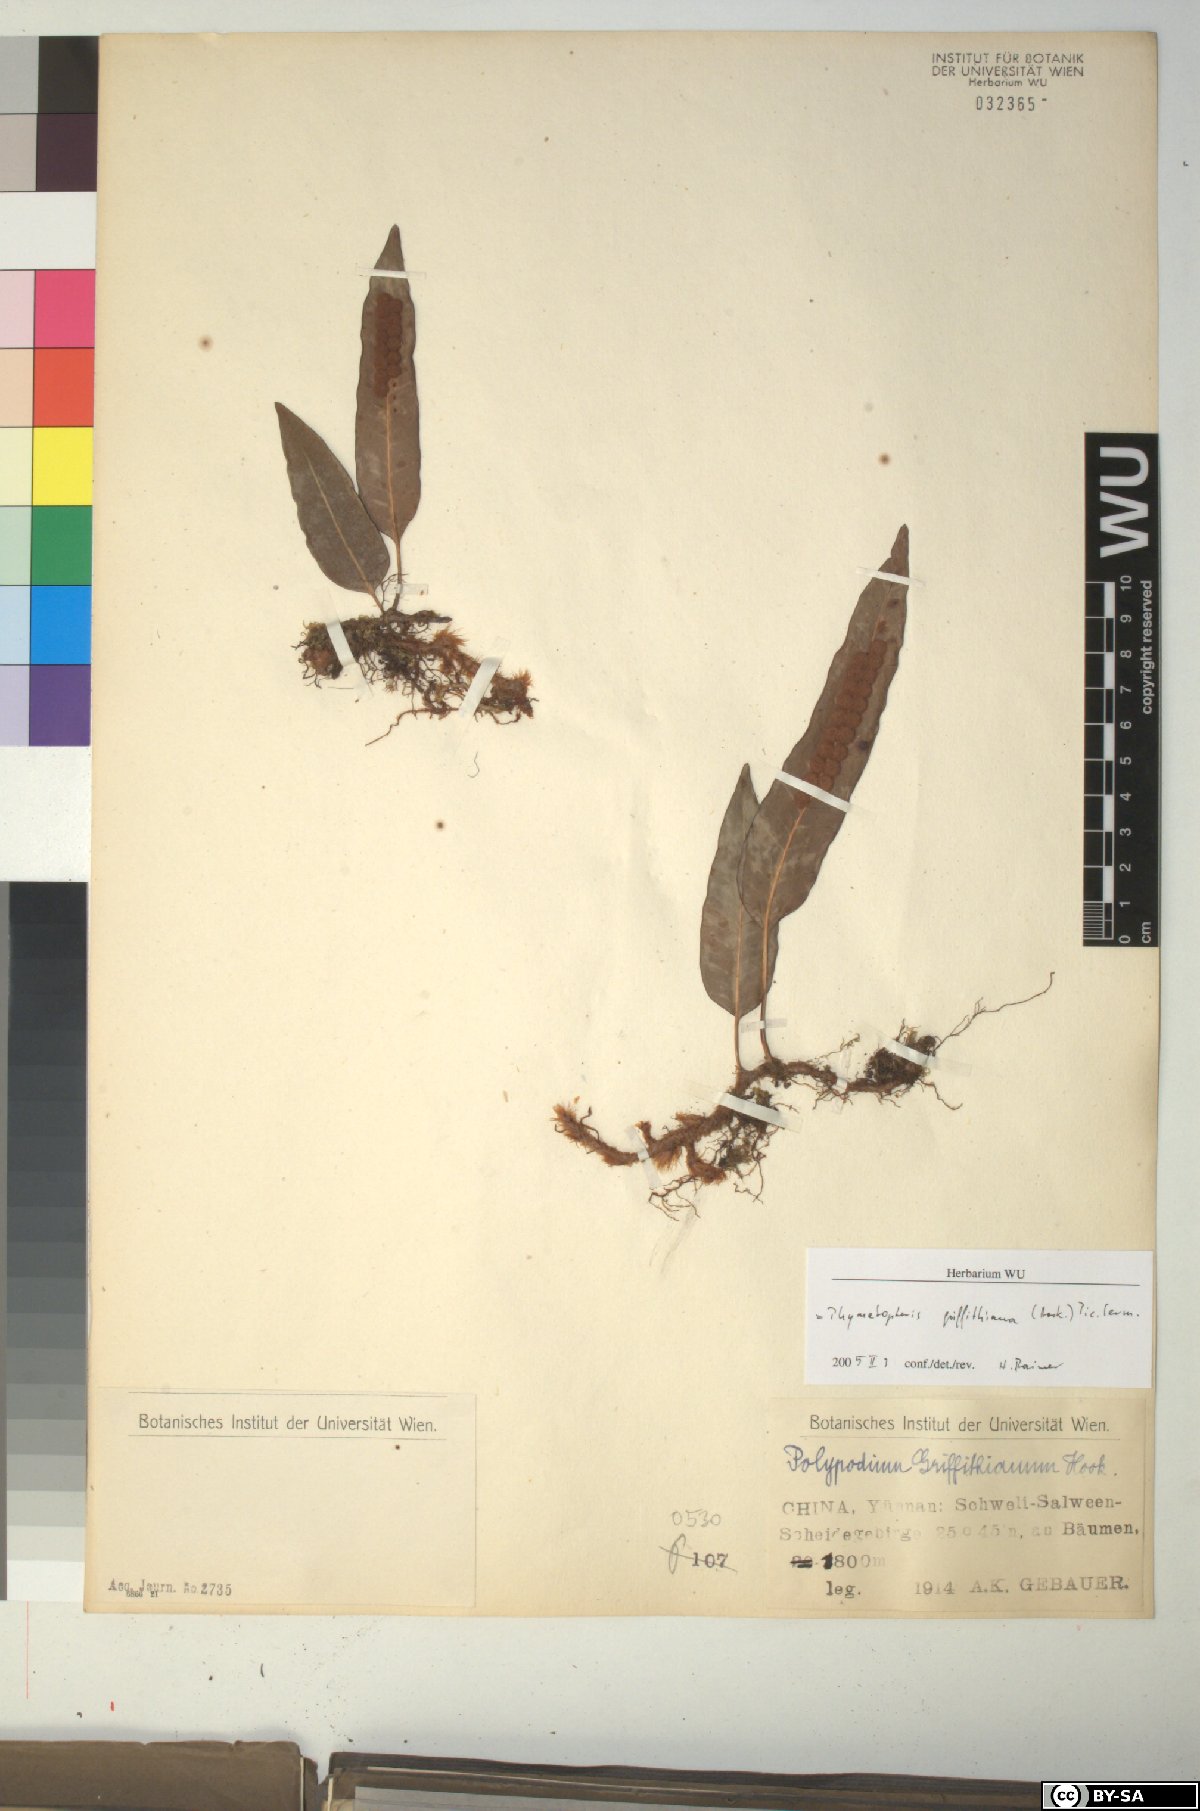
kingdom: Plantae
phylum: Tracheophyta
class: Polypodiopsida
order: Polypodiales
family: Polypodiaceae
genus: Selliguea
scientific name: Selliguea griffithiana
